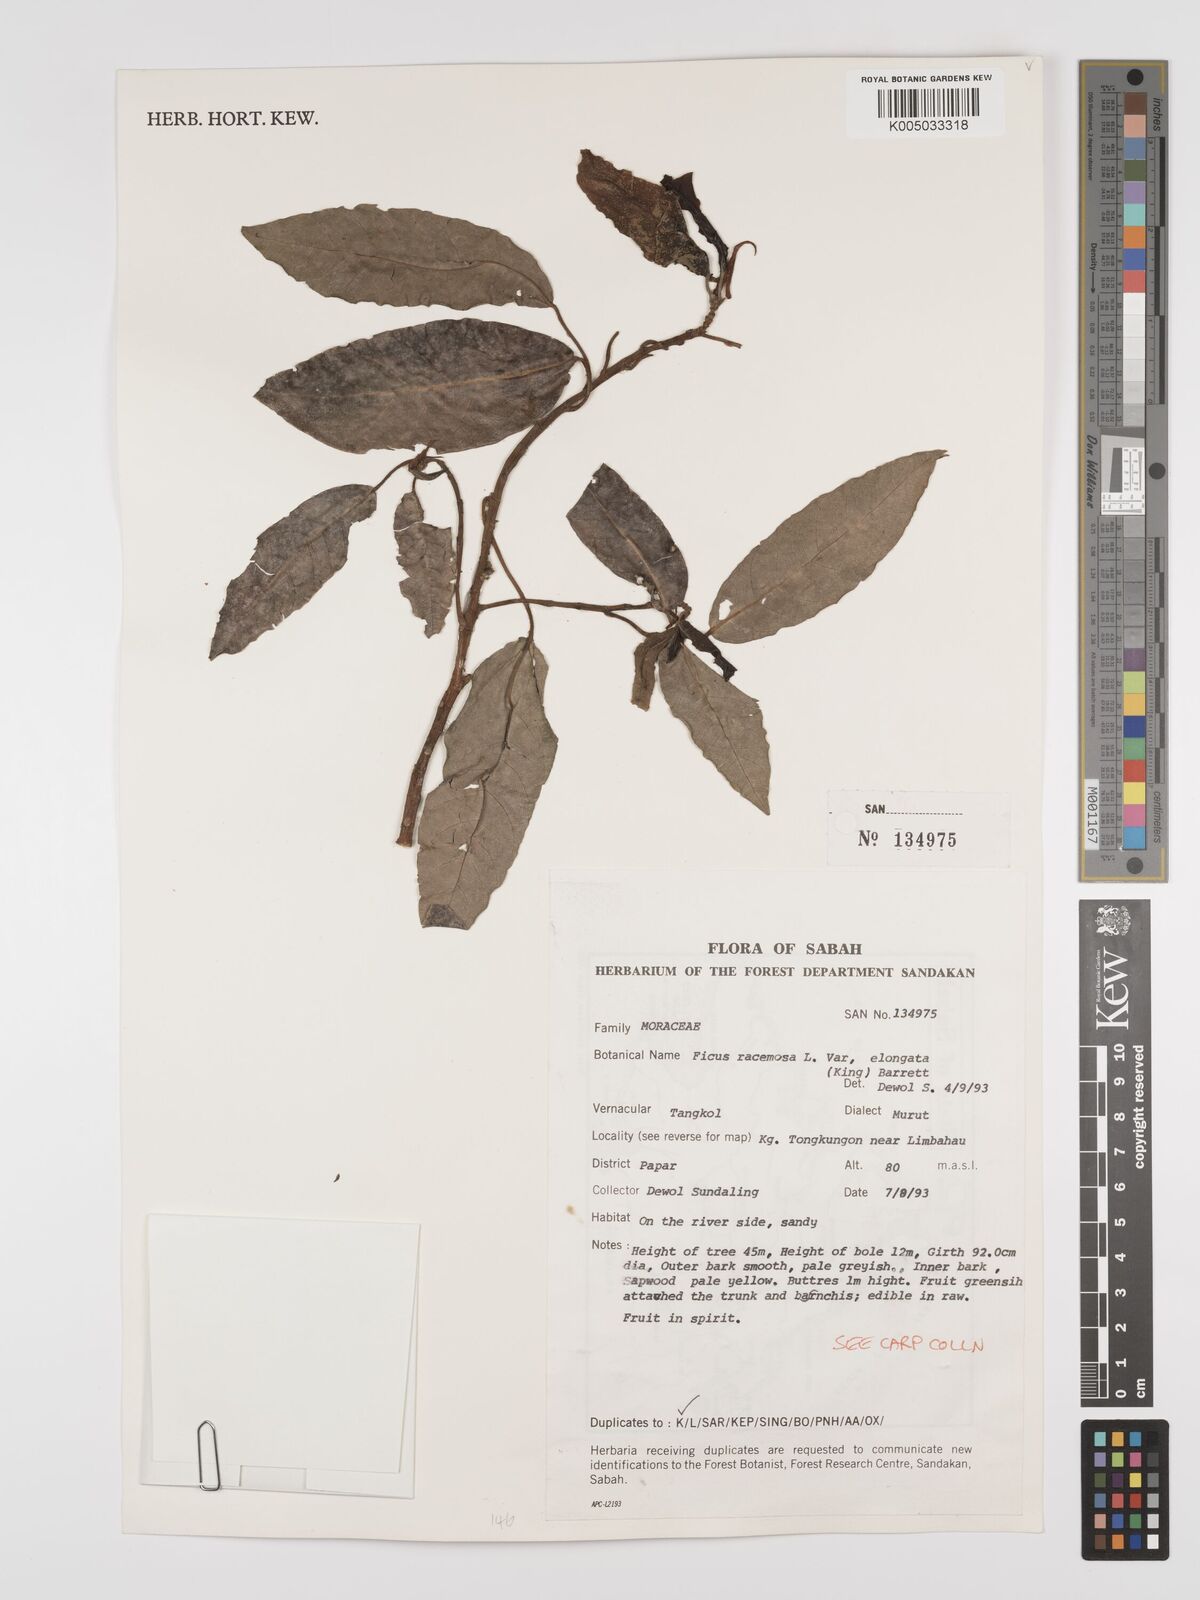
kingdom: Plantae
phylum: Tracheophyta
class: Magnoliopsida
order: Rosales
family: Moraceae
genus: Ficus
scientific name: Ficus
